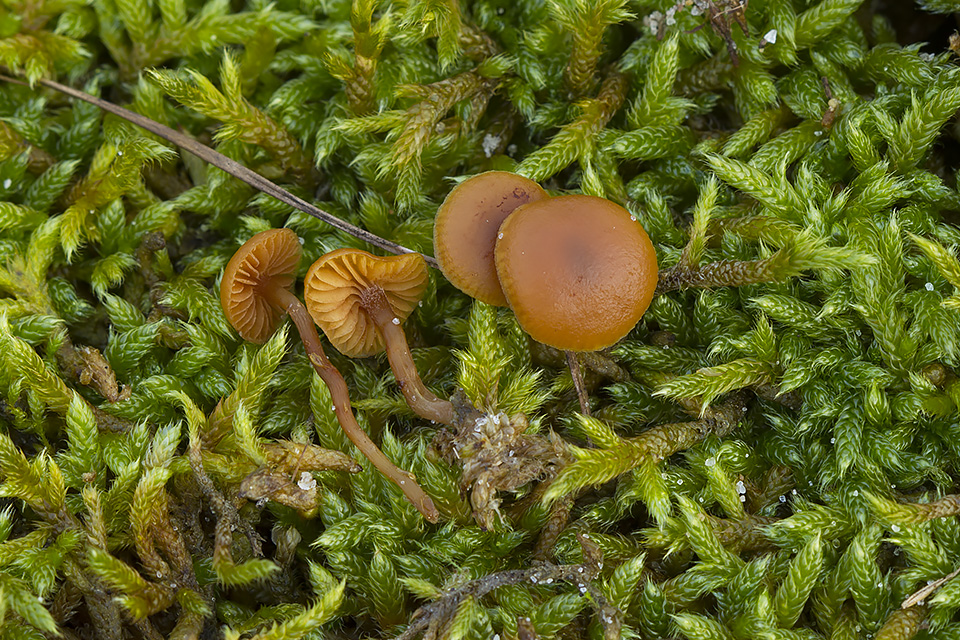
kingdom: Fungi
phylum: Basidiomycota
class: Agaricomycetes
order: Agaricales
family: Hymenogastraceae
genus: Galerina
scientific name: Galerina esteve-raventosii
